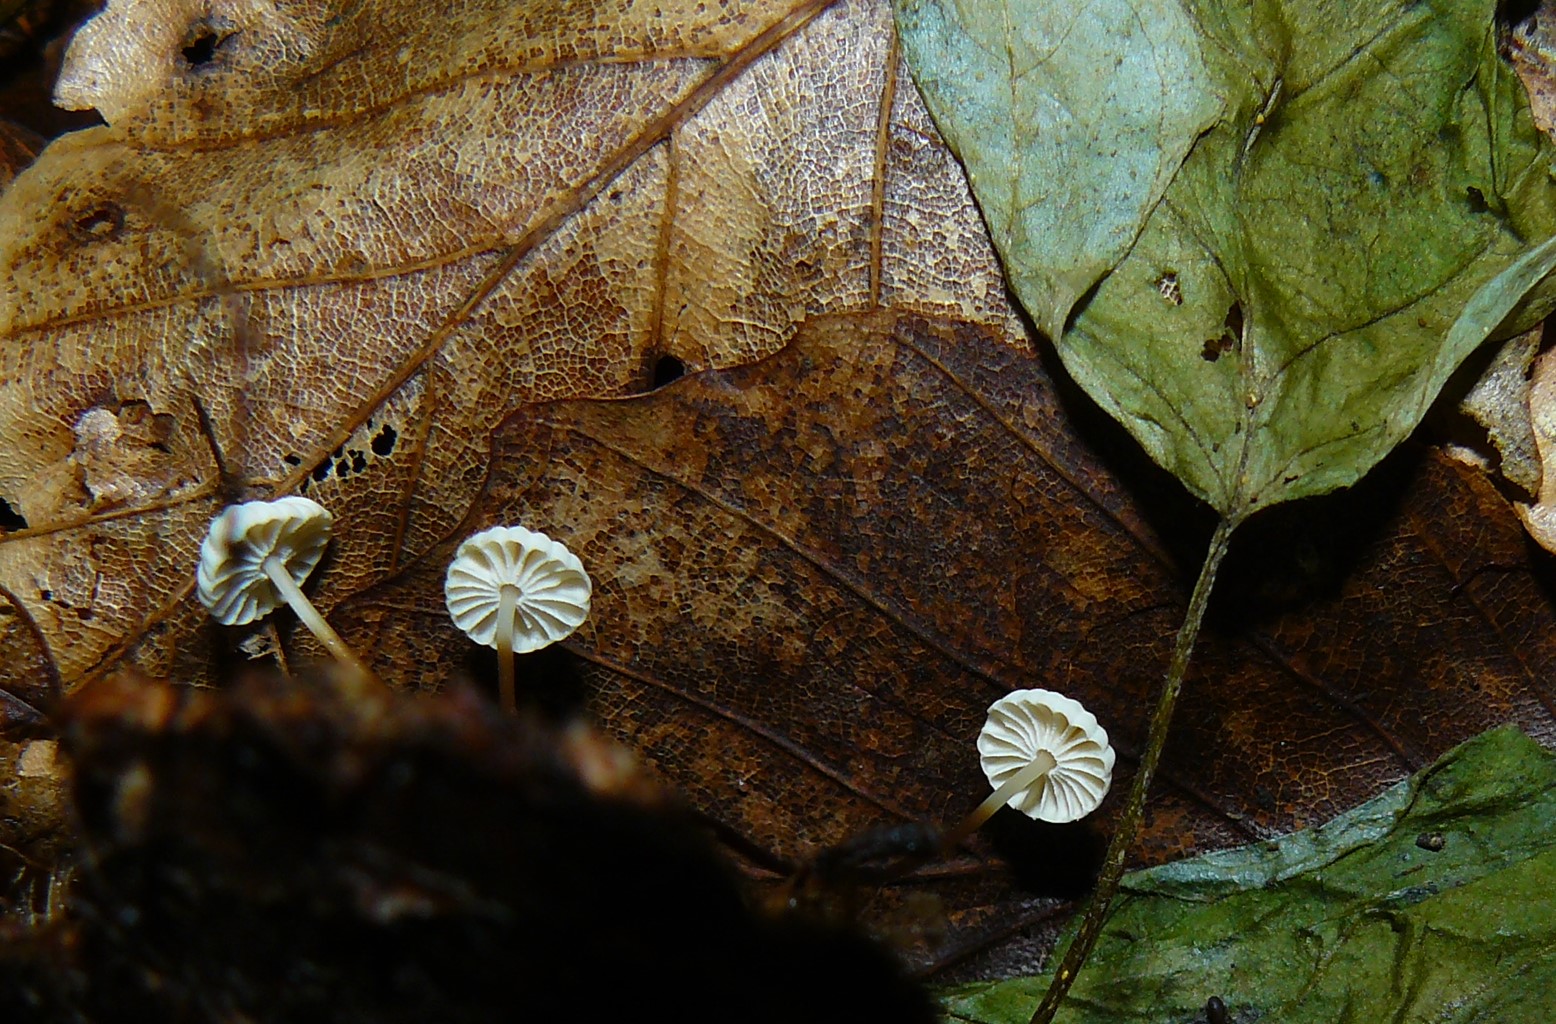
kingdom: Fungi
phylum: Basidiomycota
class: Agaricomycetes
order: Agaricales
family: Marasmiaceae
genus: Marasmius
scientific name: Marasmius rotula
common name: hjul-bruskhat
